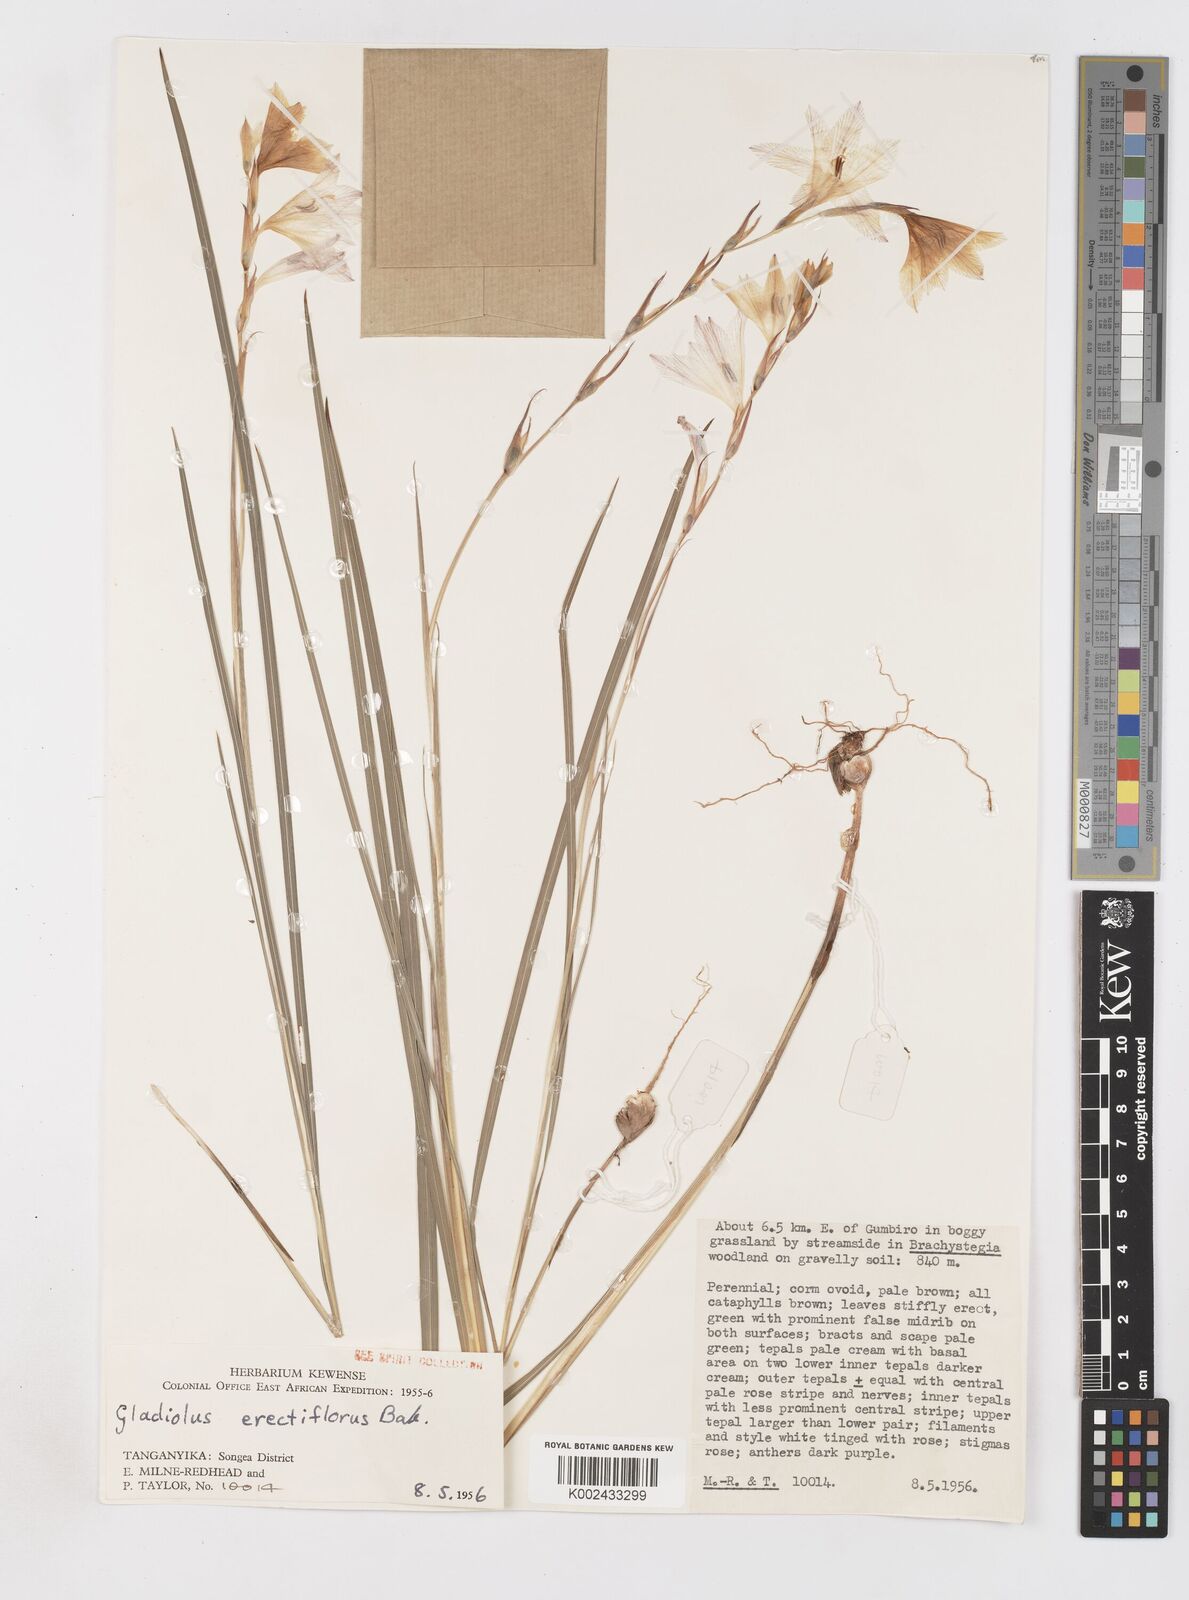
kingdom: Plantae
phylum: Tracheophyta
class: Liliopsida
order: Asparagales
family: Iridaceae
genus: Gladiolus
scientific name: Gladiolus erectiflorus
